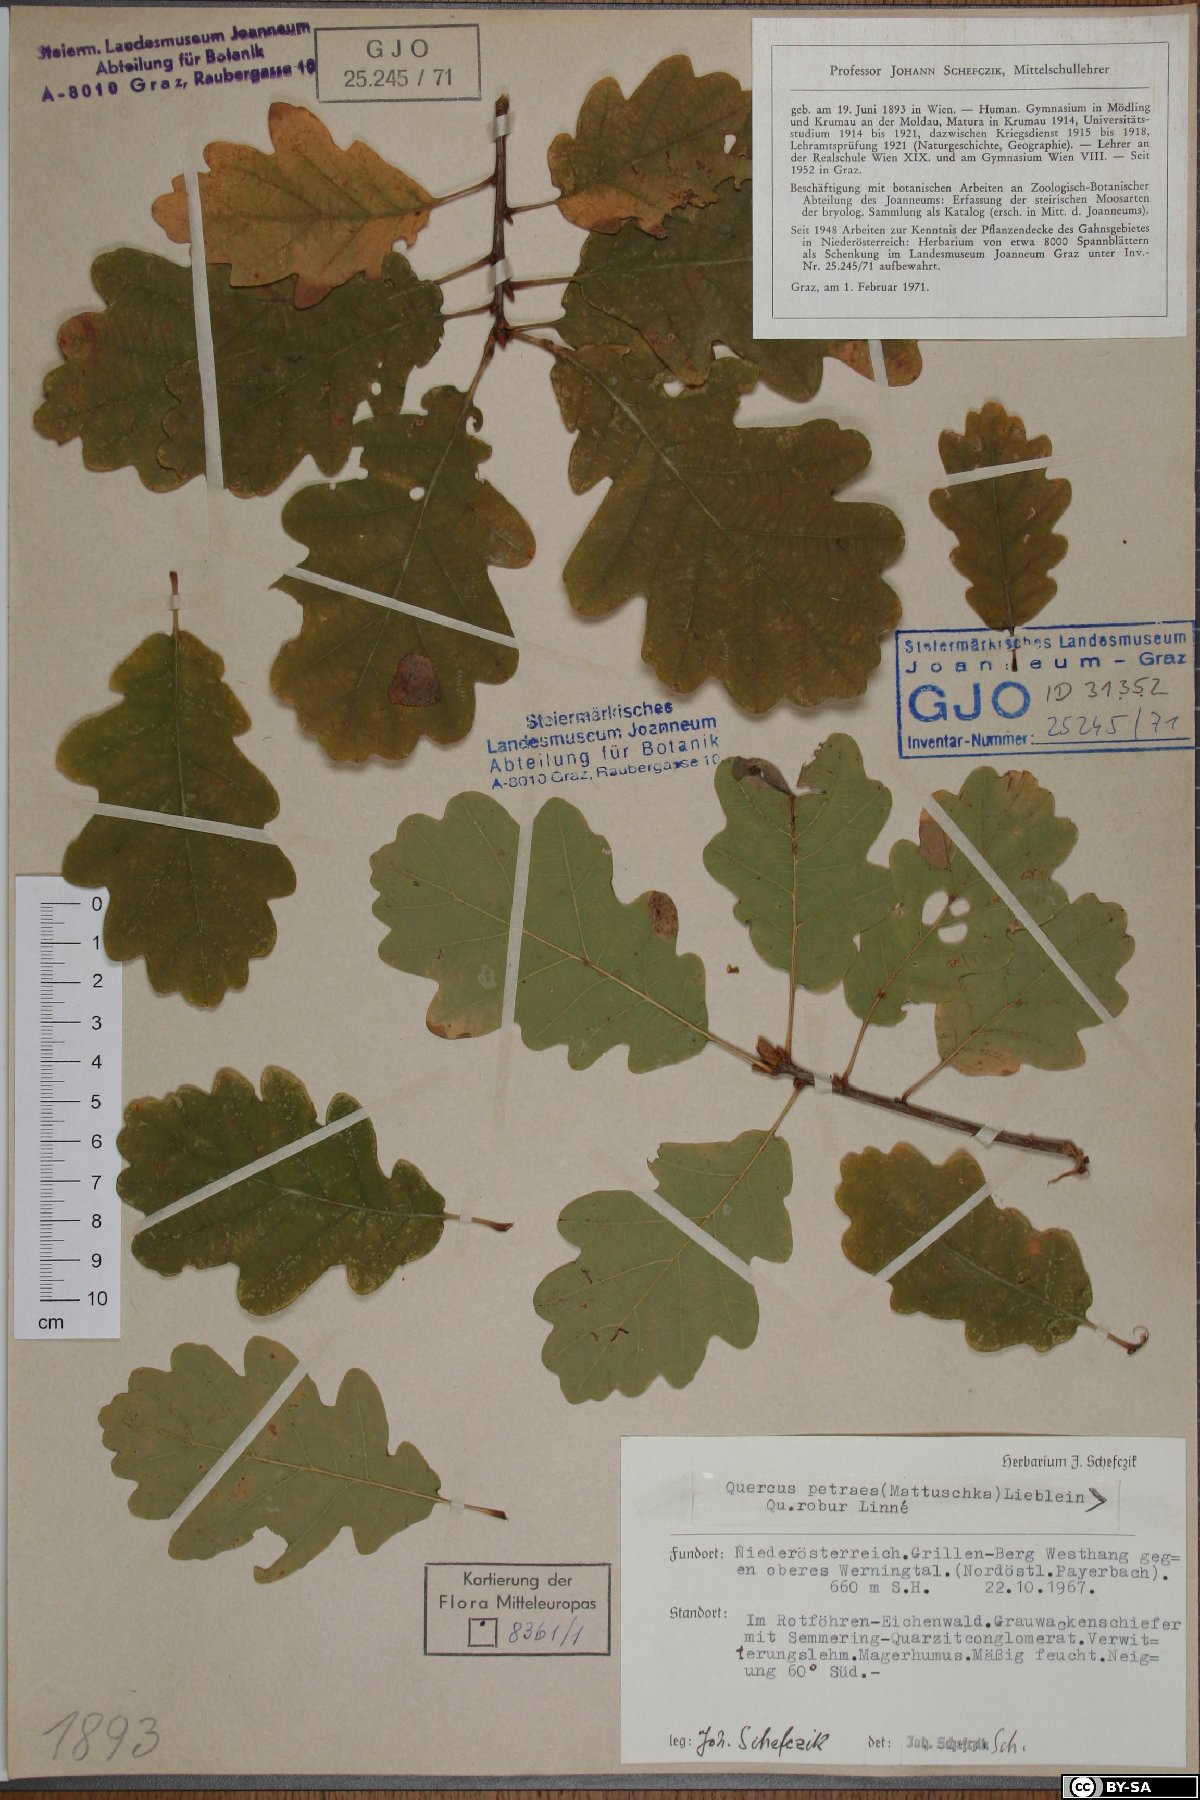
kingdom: Plantae
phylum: Tracheophyta
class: Magnoliopsida
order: Fagales
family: Fagaceae
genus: Quercus
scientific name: Quercus petraea
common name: Sessile oak
